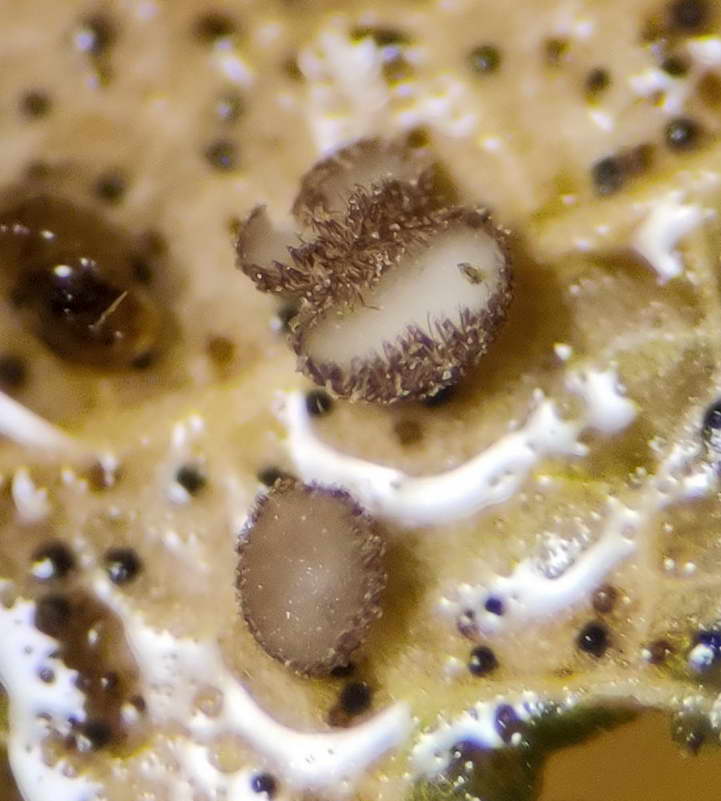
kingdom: Fungi
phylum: Ascomycota
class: Leotiomycetes
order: Helotiales
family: Lachnaceae
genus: Brunnipila
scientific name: Brunnipila brunneola
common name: læderbrun frynseskive
